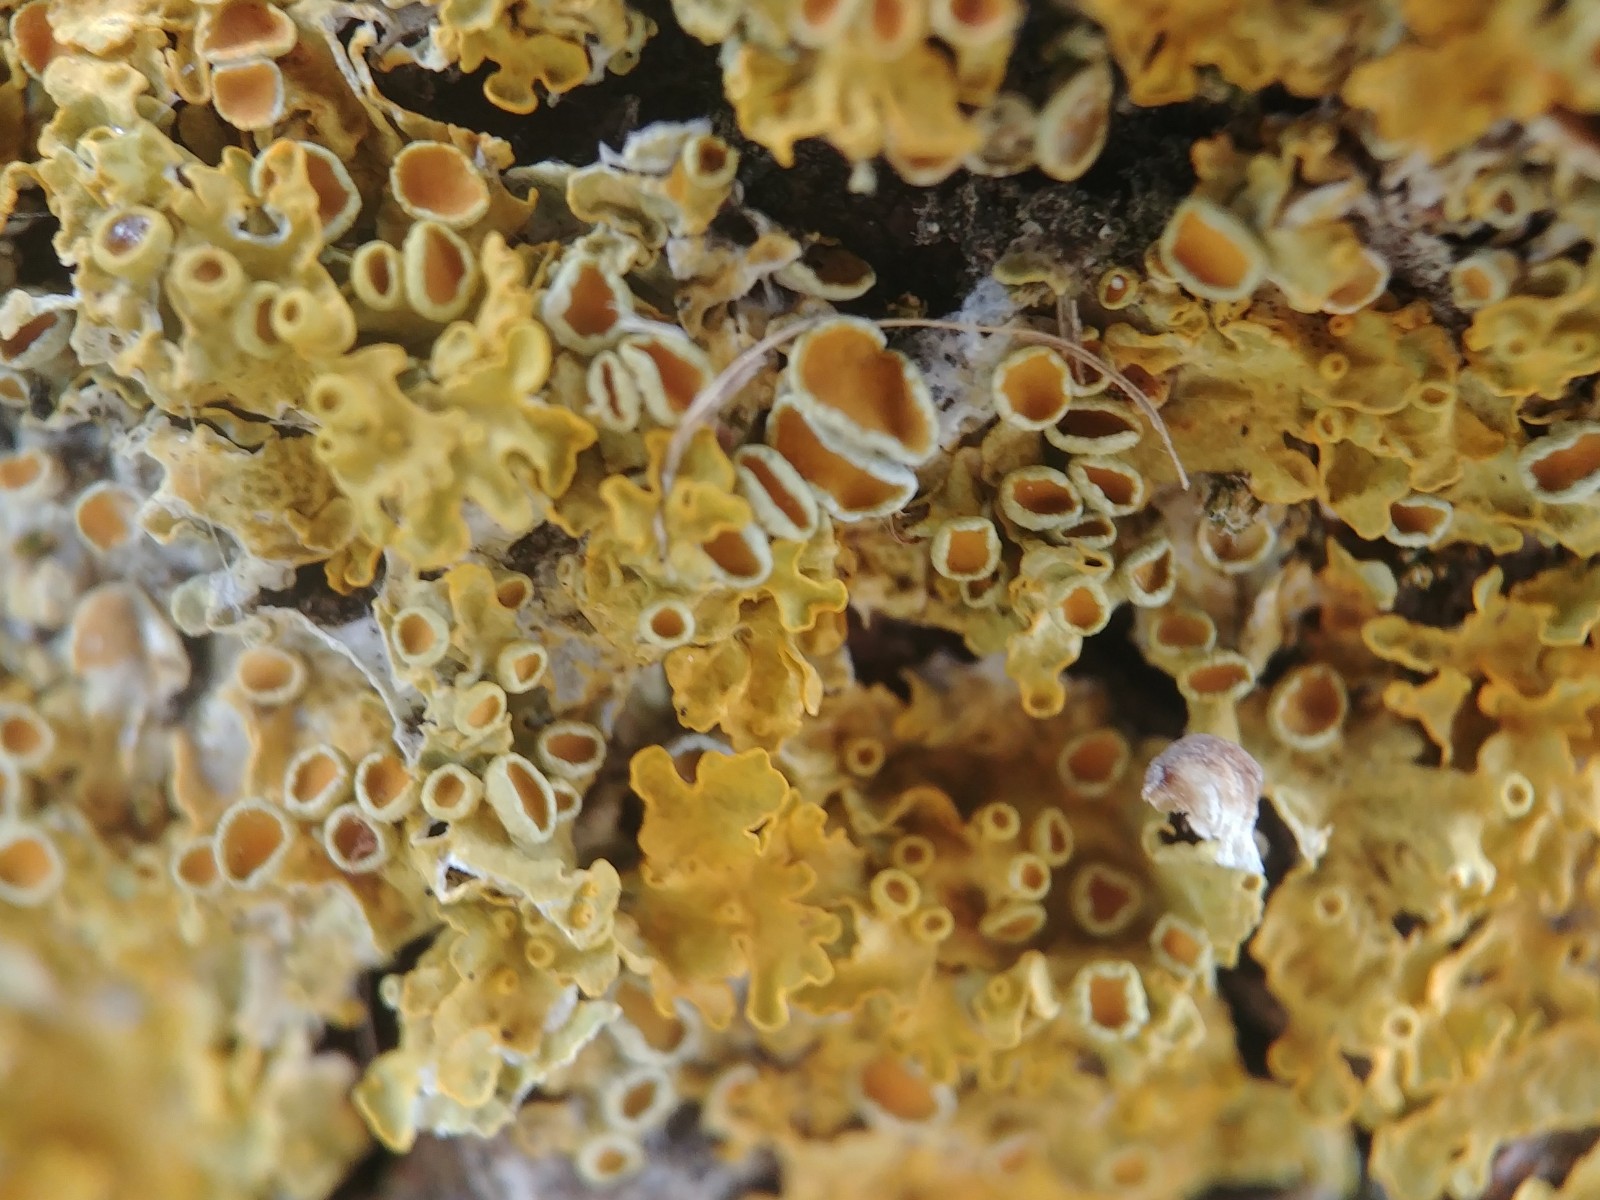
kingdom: Fungi
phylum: Ascomycota
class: Lecanoromycetes
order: Teloschistales
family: Teloschistaceae
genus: Xanthoria
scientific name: Xanthoria parietina
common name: almindelig væggelav
